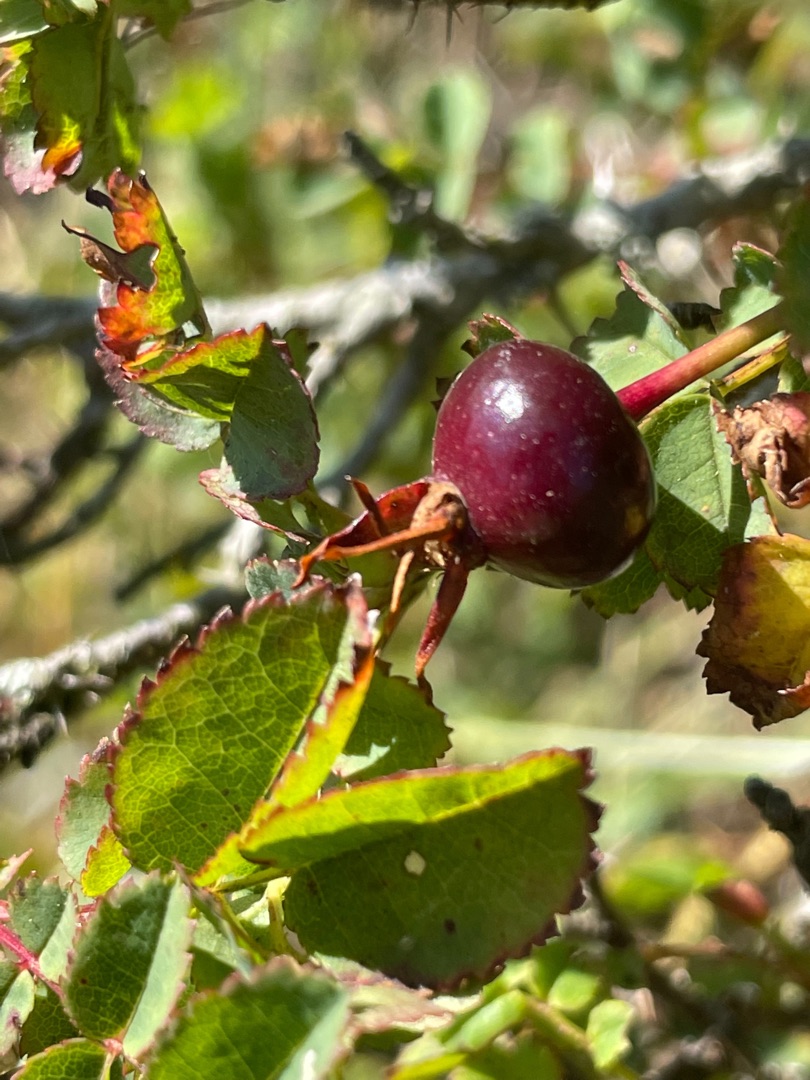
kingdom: Plantae
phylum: Tracheophyta
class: Magnoliopsida
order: Rosales
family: Rosaceae
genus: Rosa
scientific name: Rosa spinosissima
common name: Klit-rose
